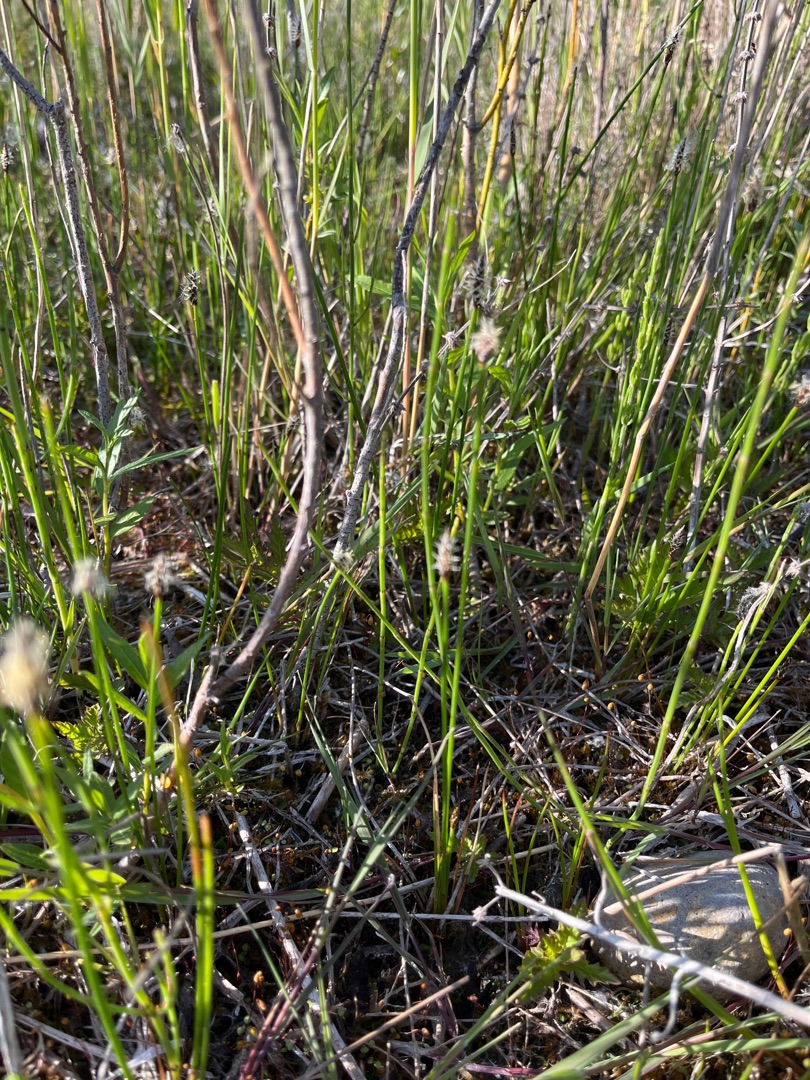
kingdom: Plantae
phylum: Tracheophyta
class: Liliopsida
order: Poales
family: Cyperaceae
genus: Eleocharis
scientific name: Eleocharis palustris
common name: Almindelig sumpstrå
